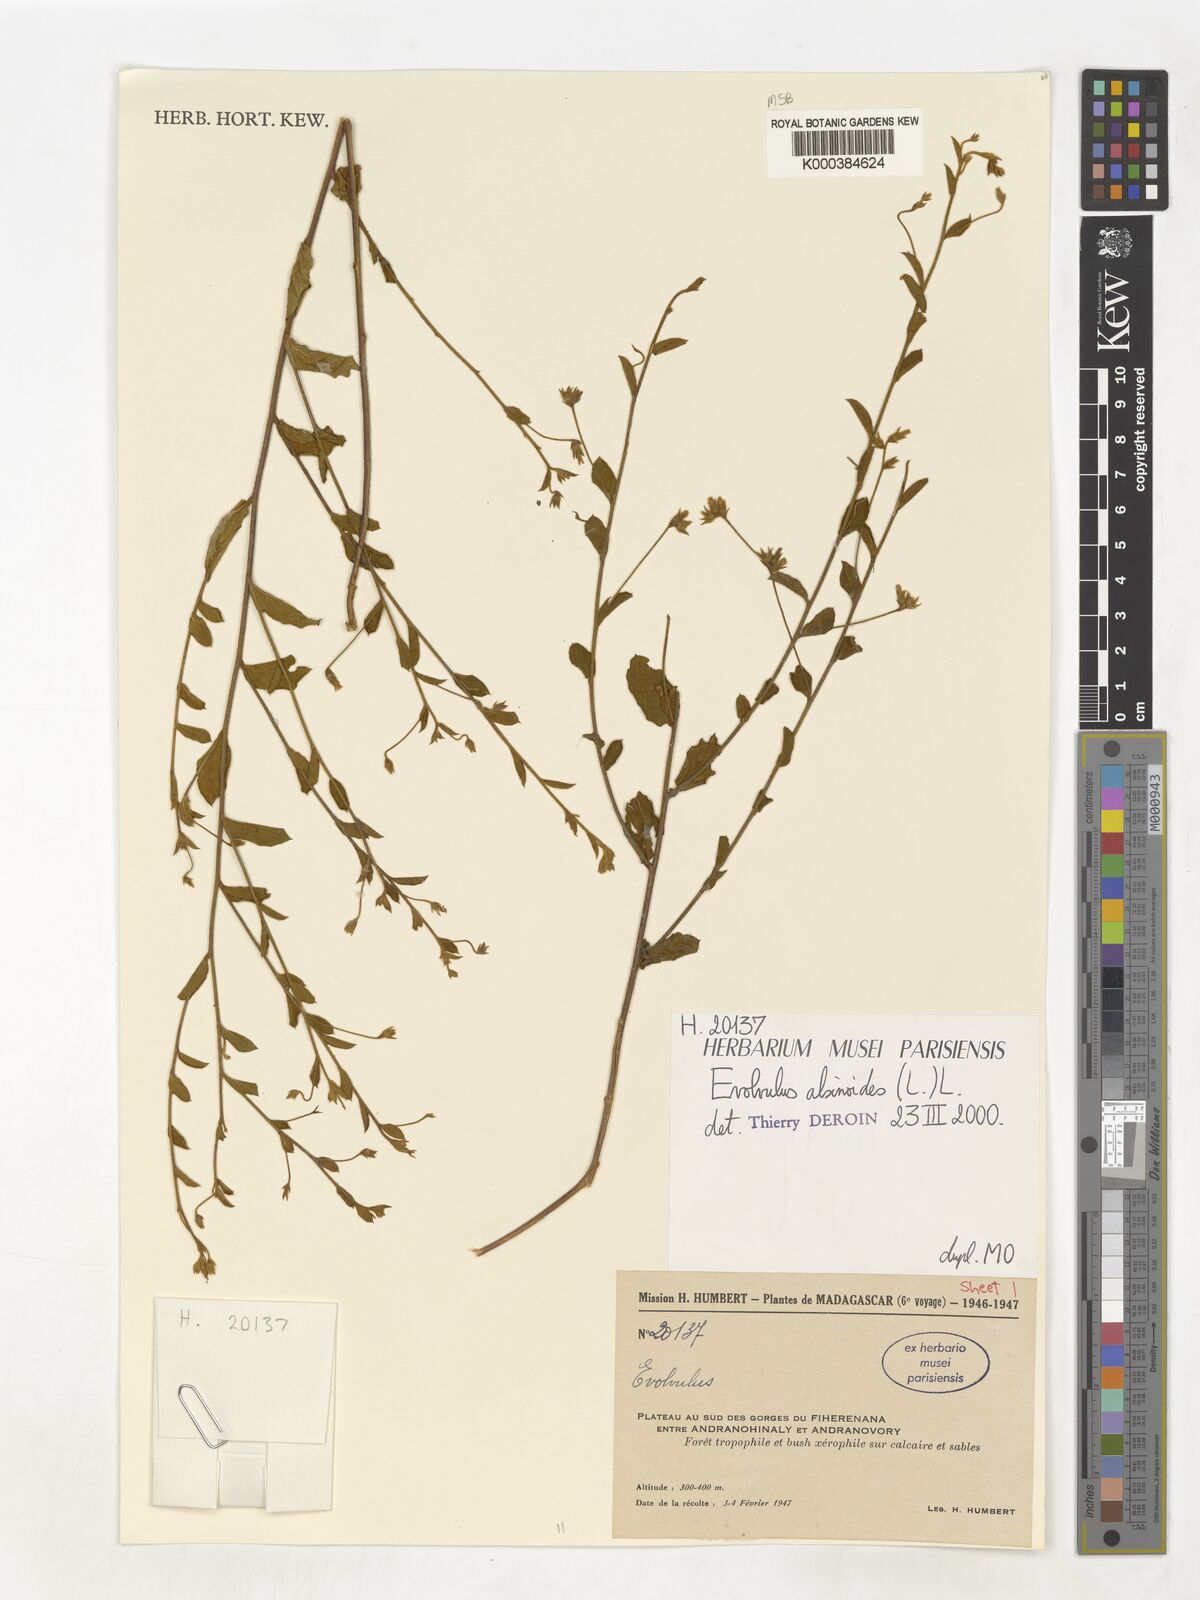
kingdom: Plantae
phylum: Tracheophyta
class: Magnoliopsida
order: Solanales
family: Convolvulaceae
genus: Evolvulus
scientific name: Evolvulus alsinoides
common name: Slender dwarf morning-glory
